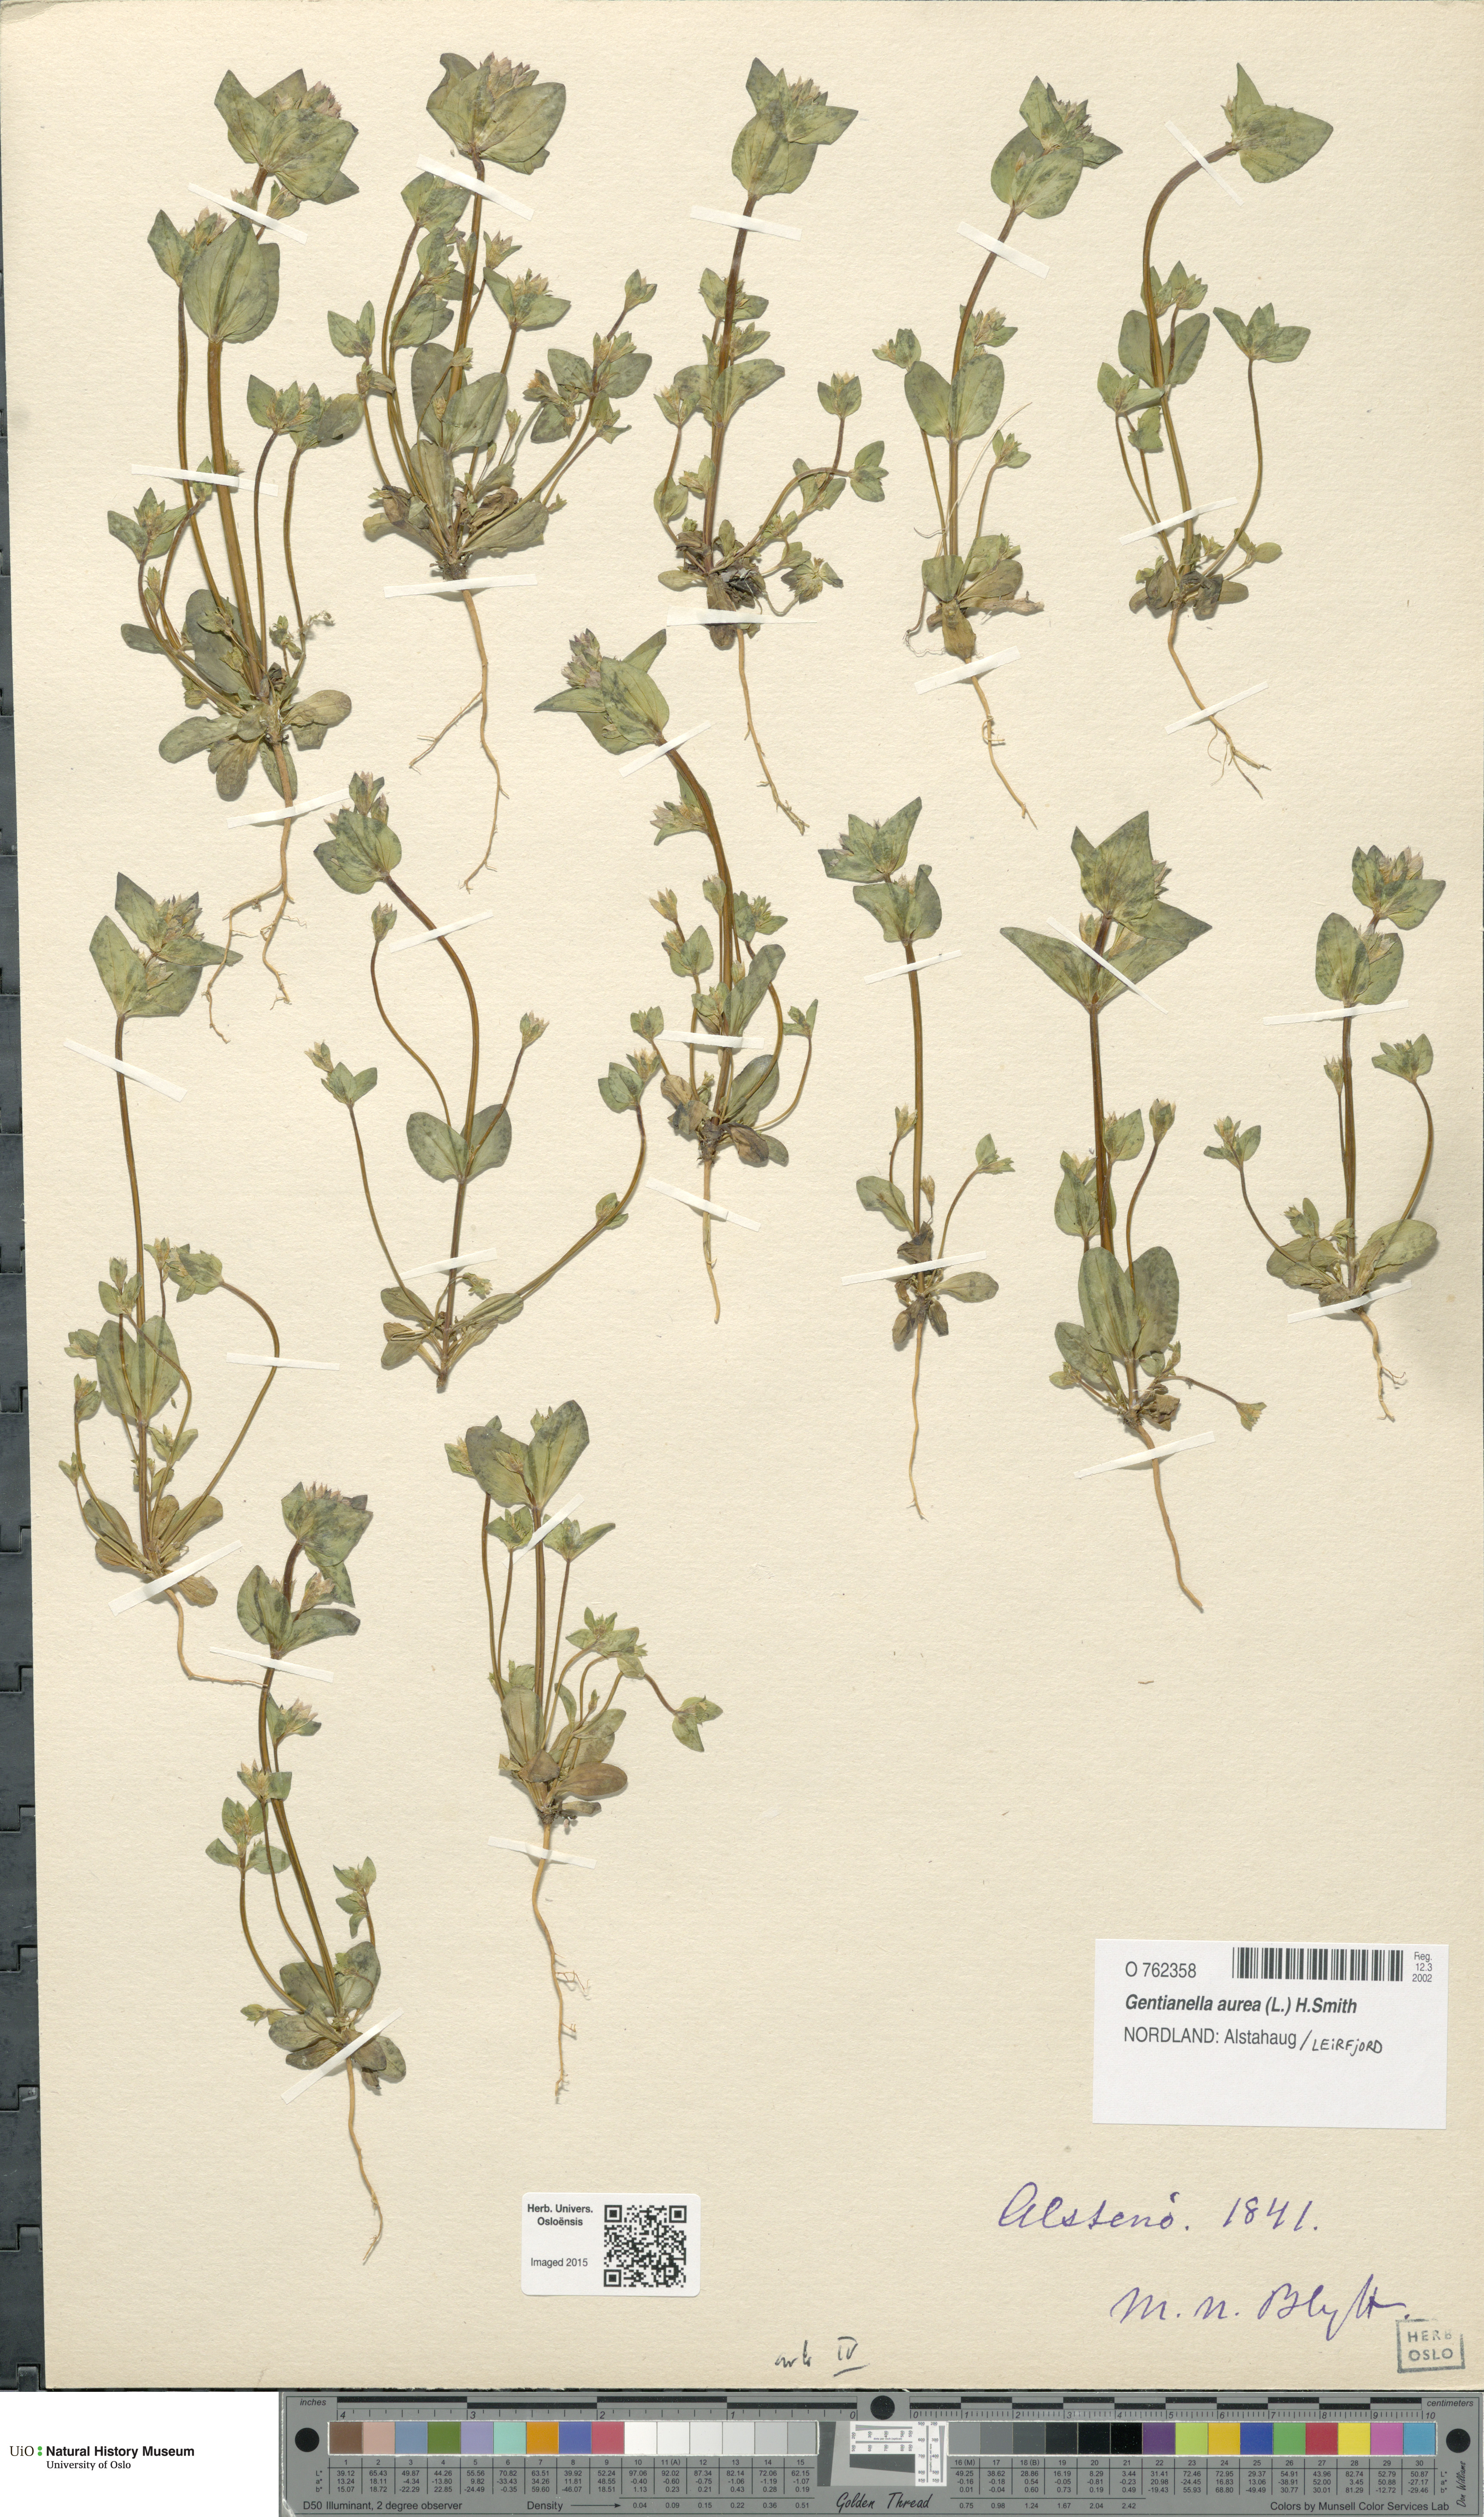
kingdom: Plantae
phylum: Tracheophyta
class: Magnoliopsida
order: Gentianales
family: Gentianaceae
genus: Gentianella
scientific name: Gentianella aurea
